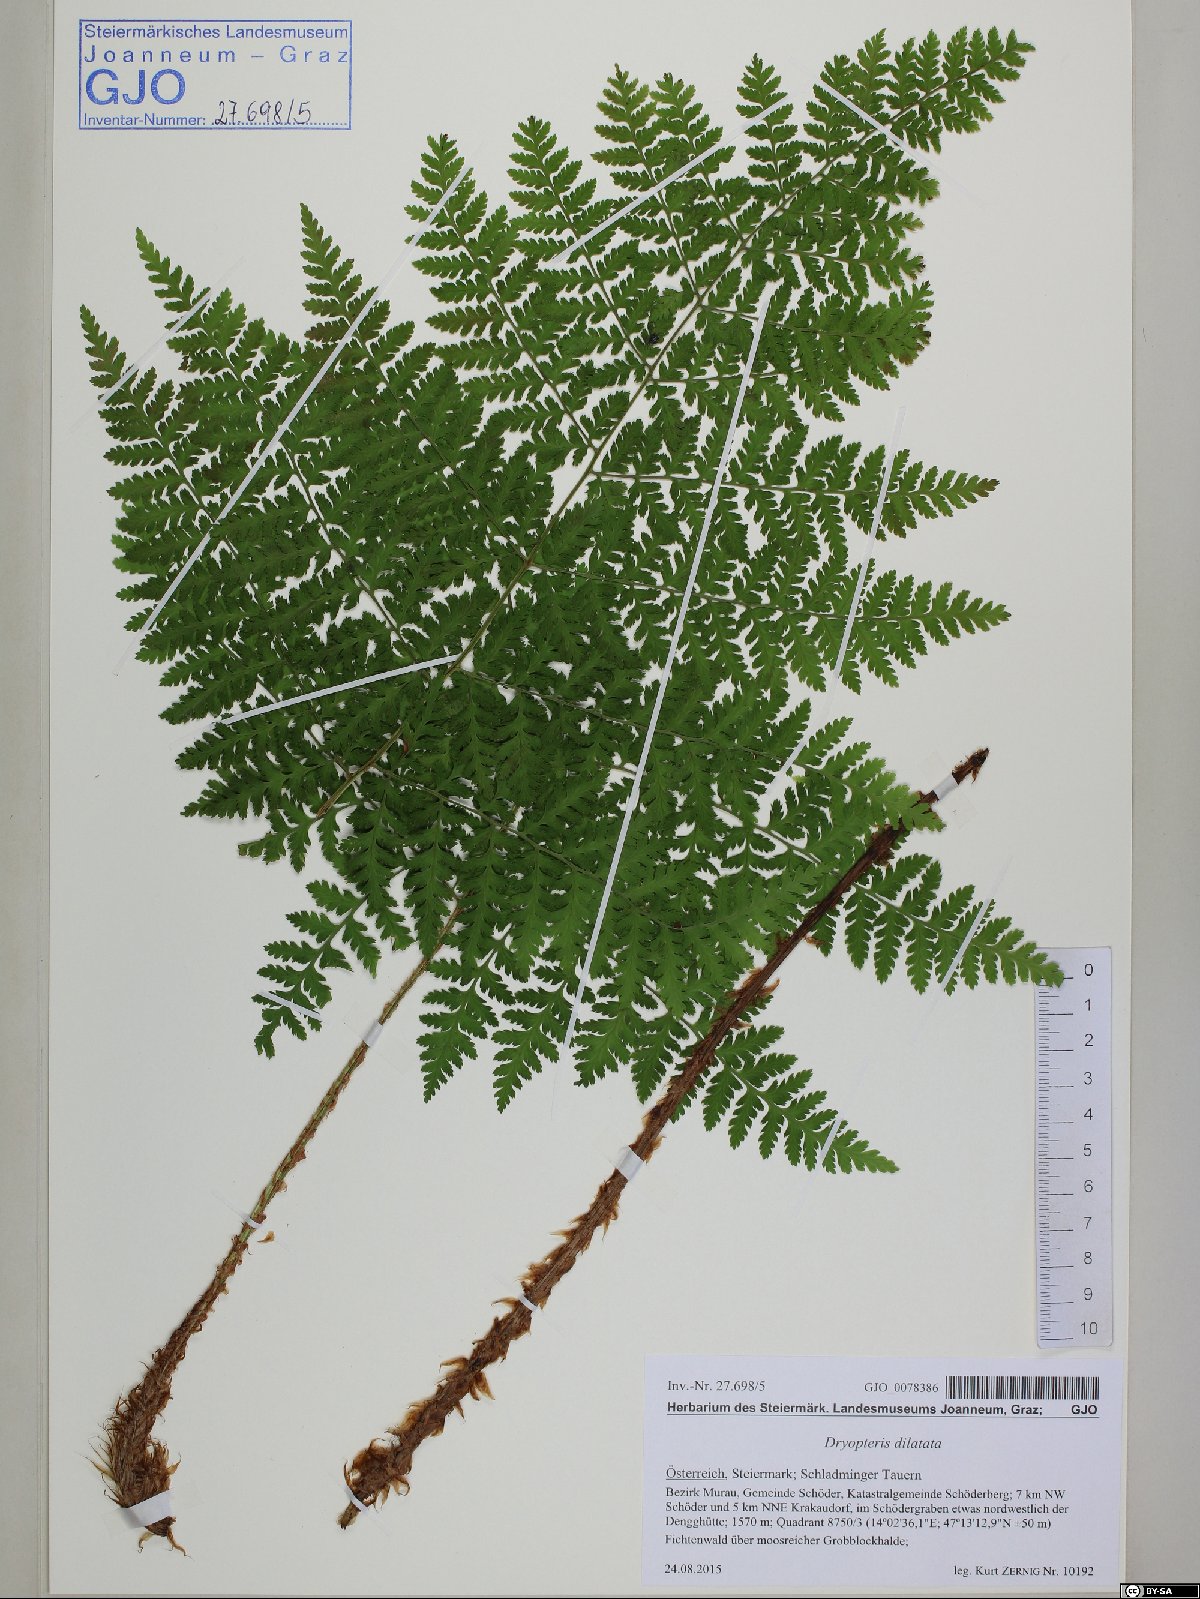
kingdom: Plantae
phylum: Tracheophyta
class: Polypodiopsida
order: Polypodiales
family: Dryopteridaceae
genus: Dryopteris
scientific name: Dryopteris dilatata
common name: Broad buckler-fern
